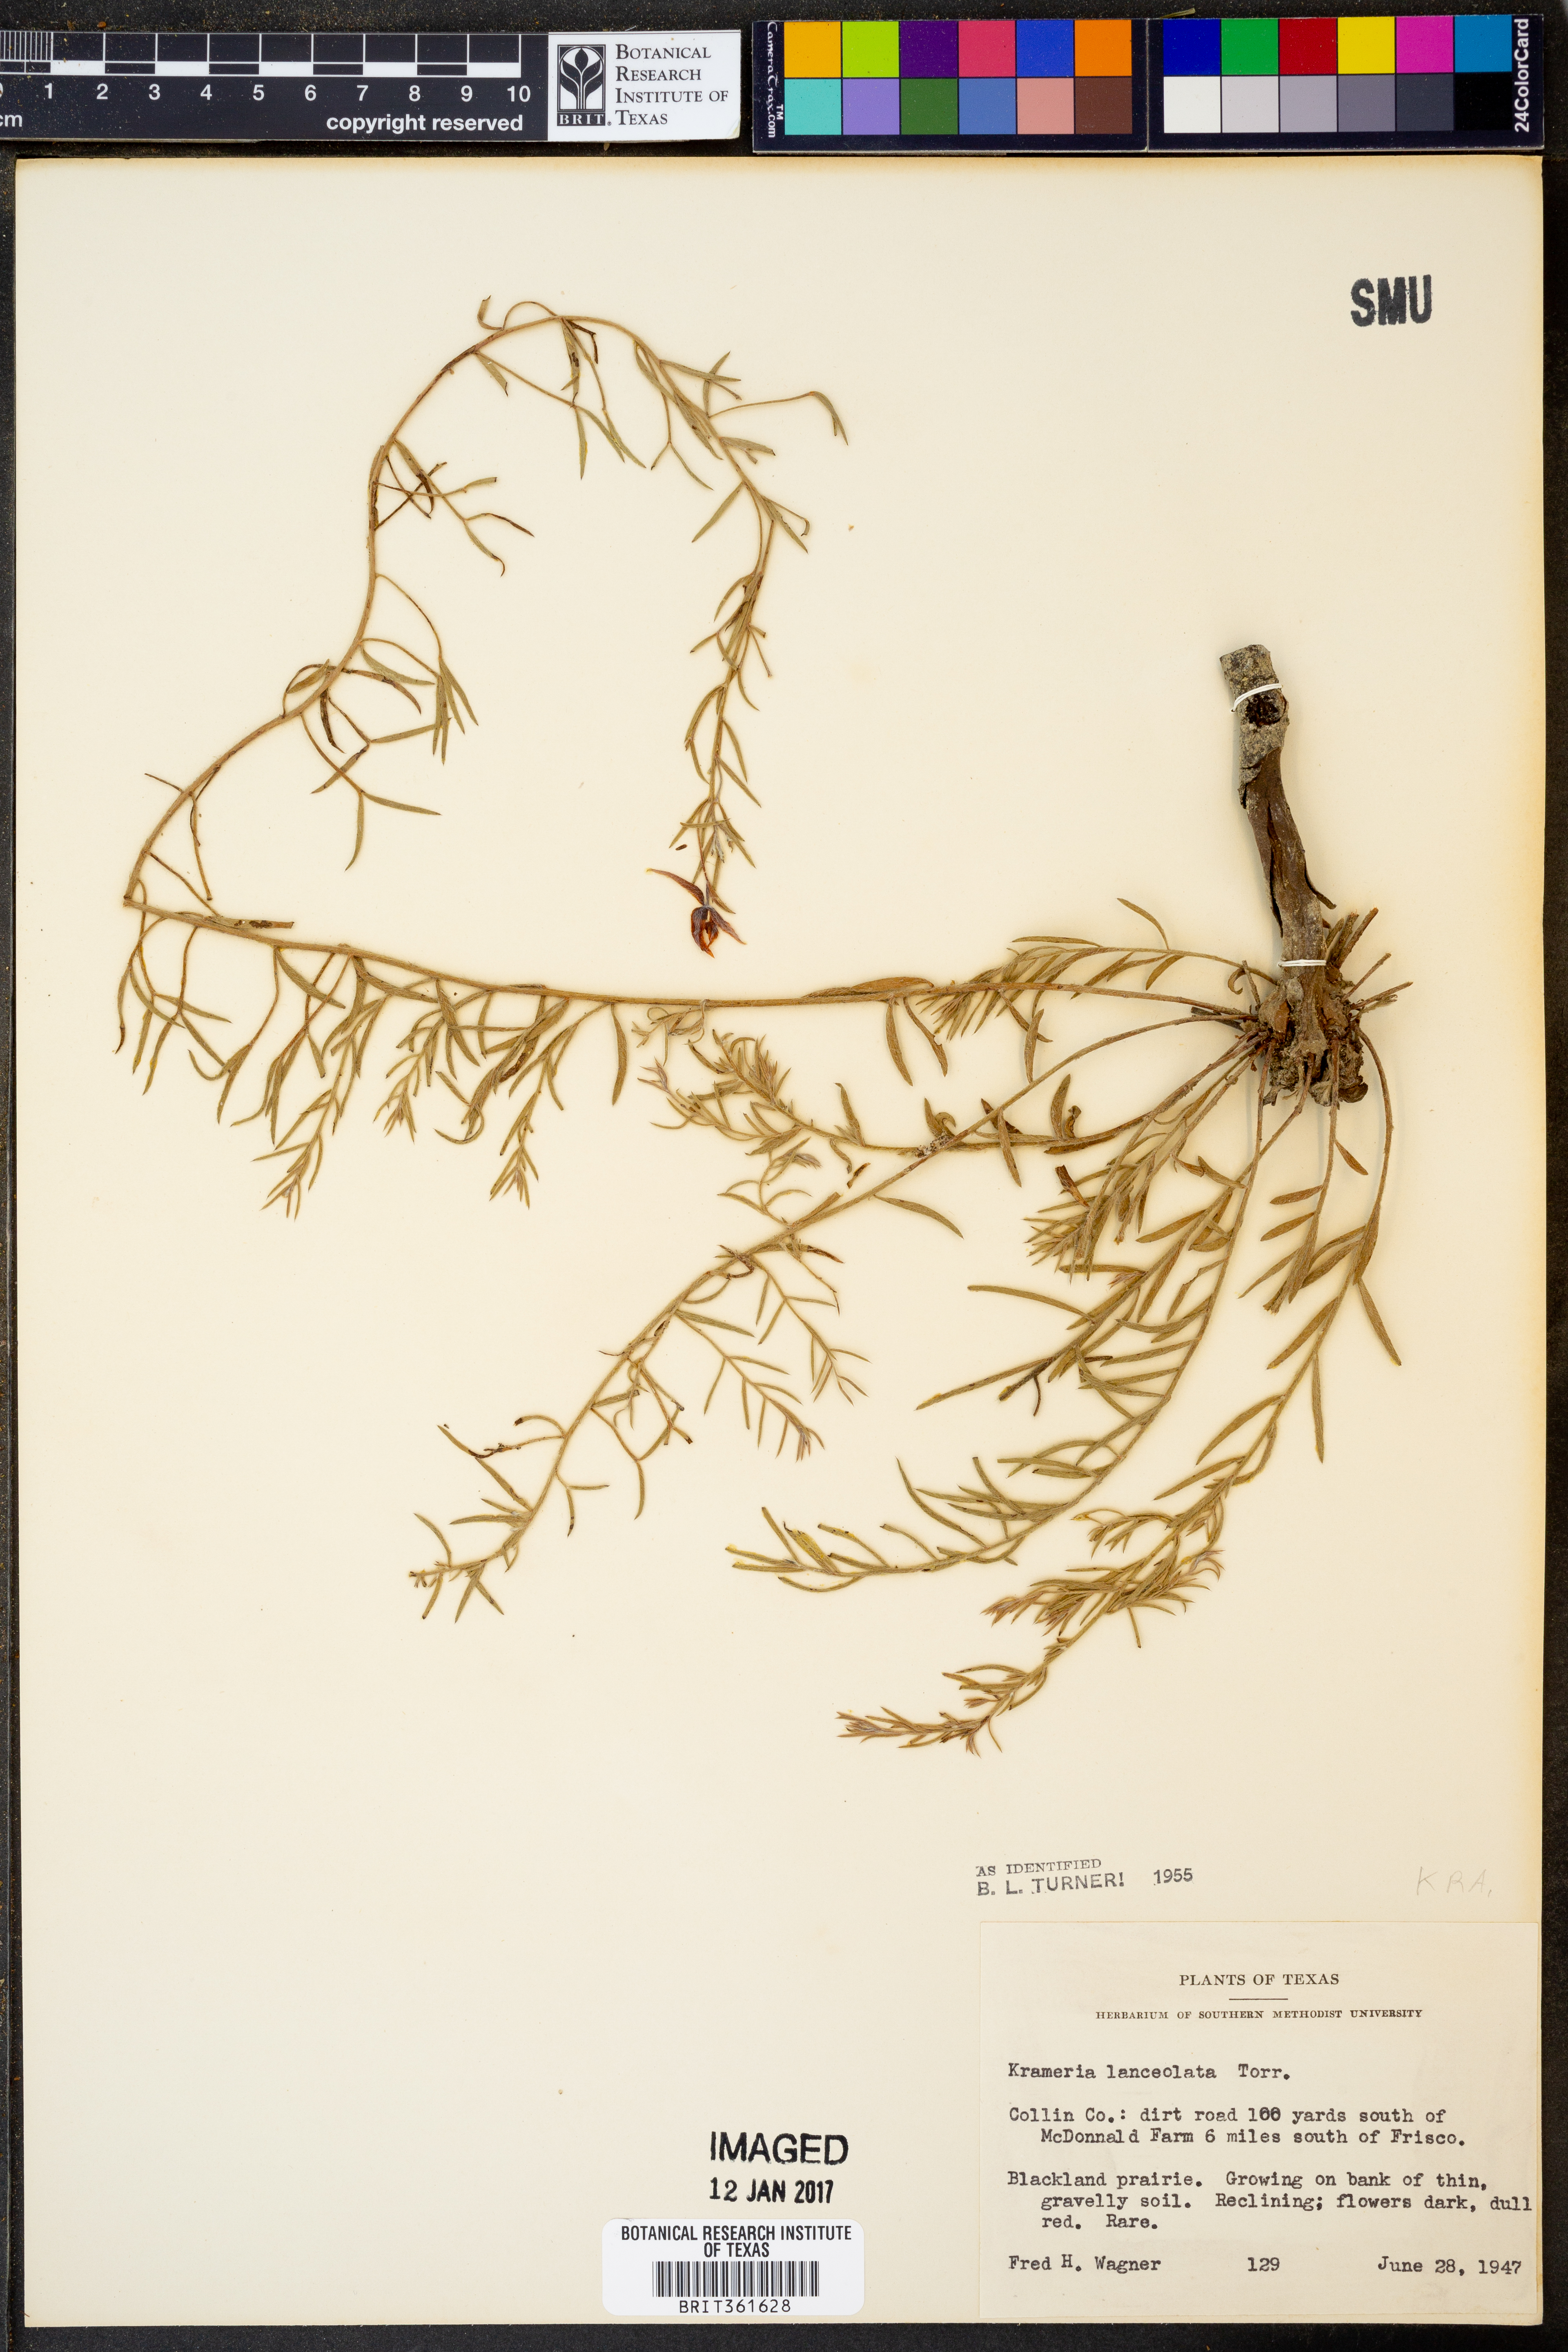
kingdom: Plantae
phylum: Tracheophyta
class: Magnoliopsida
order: Zygophyllales
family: Krameriaceae
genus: Krameria
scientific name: Krameria lanceolata
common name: Ratany
